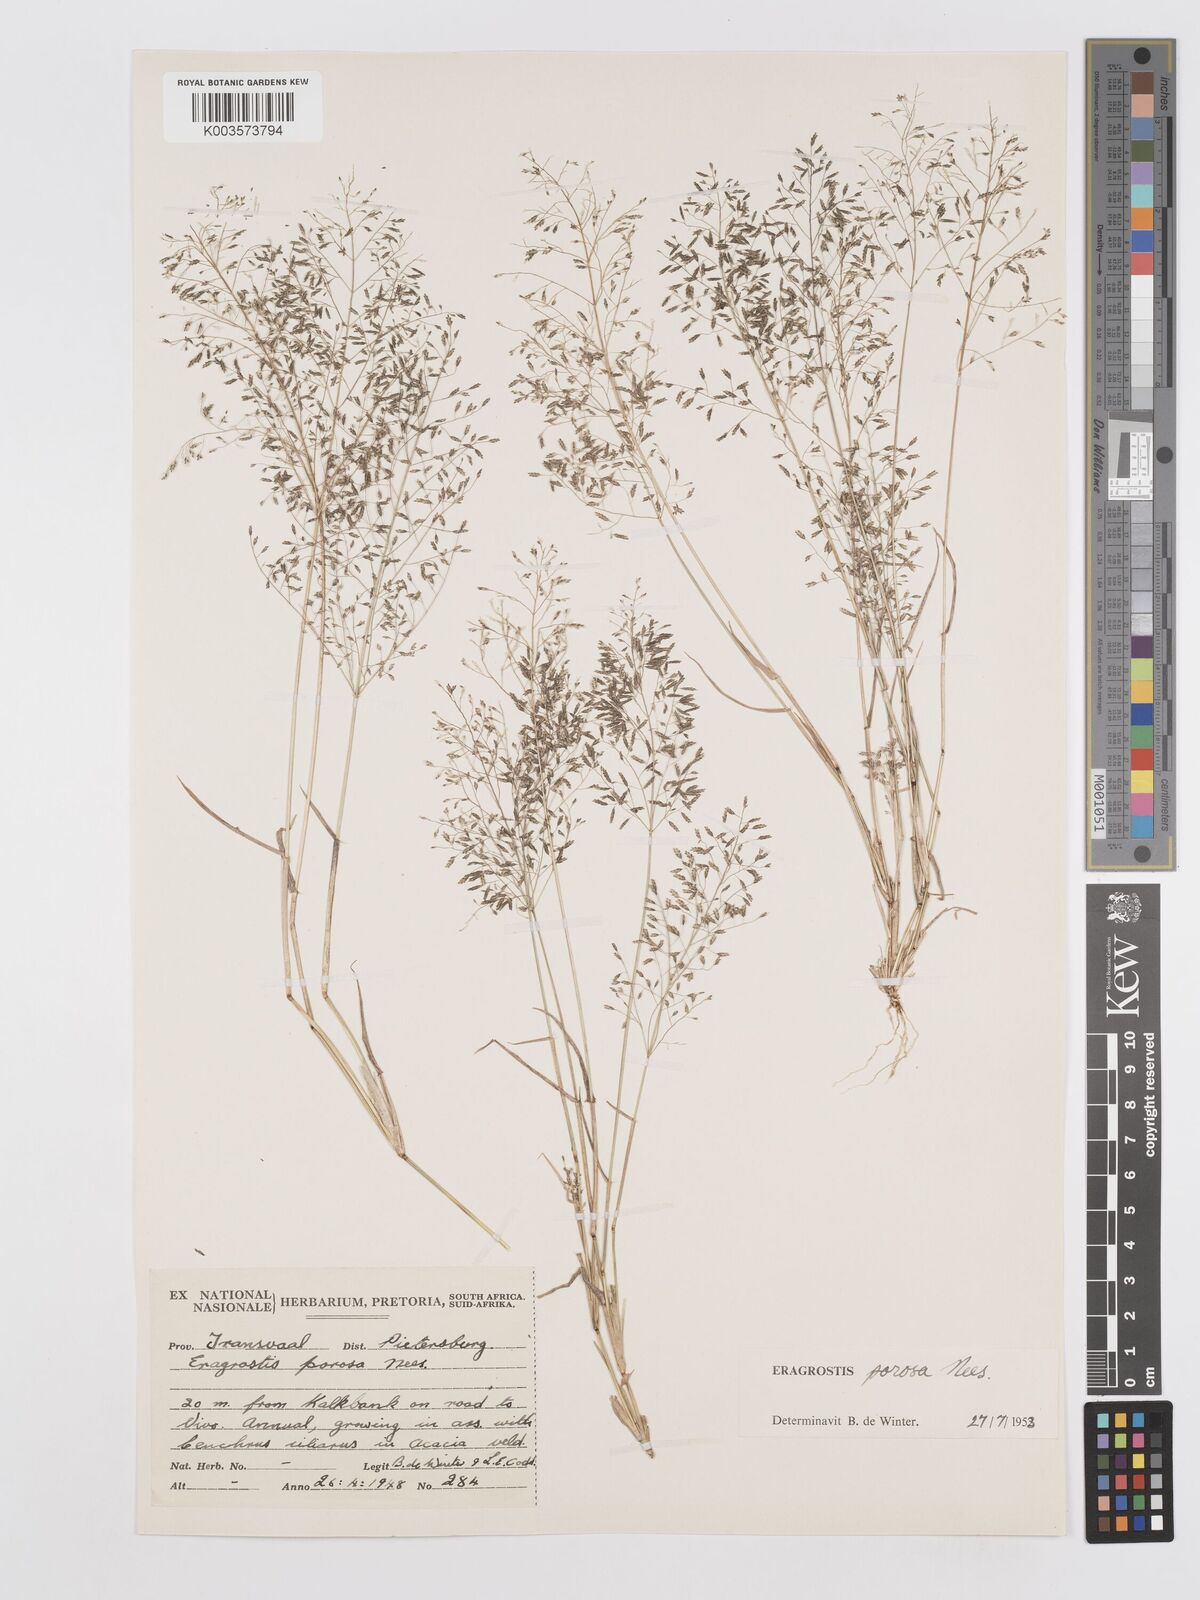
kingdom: Plantae
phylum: Tracheophyta
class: Liliopsida
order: Poales
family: Poaceae
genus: Eragrostis
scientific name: Eragrostis porosa
